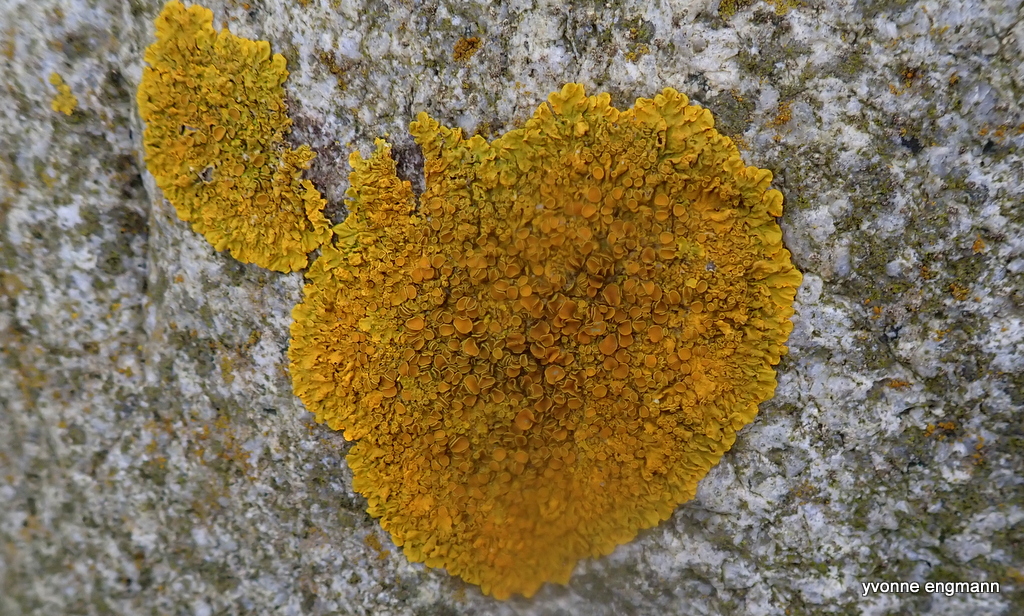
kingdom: Fungi
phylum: Ascomycota
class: Lecanoromycetes
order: Teloschistales
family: Teloschistaceae
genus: Xanthoria
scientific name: Xanthoria parietina
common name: almindelig væggelav
